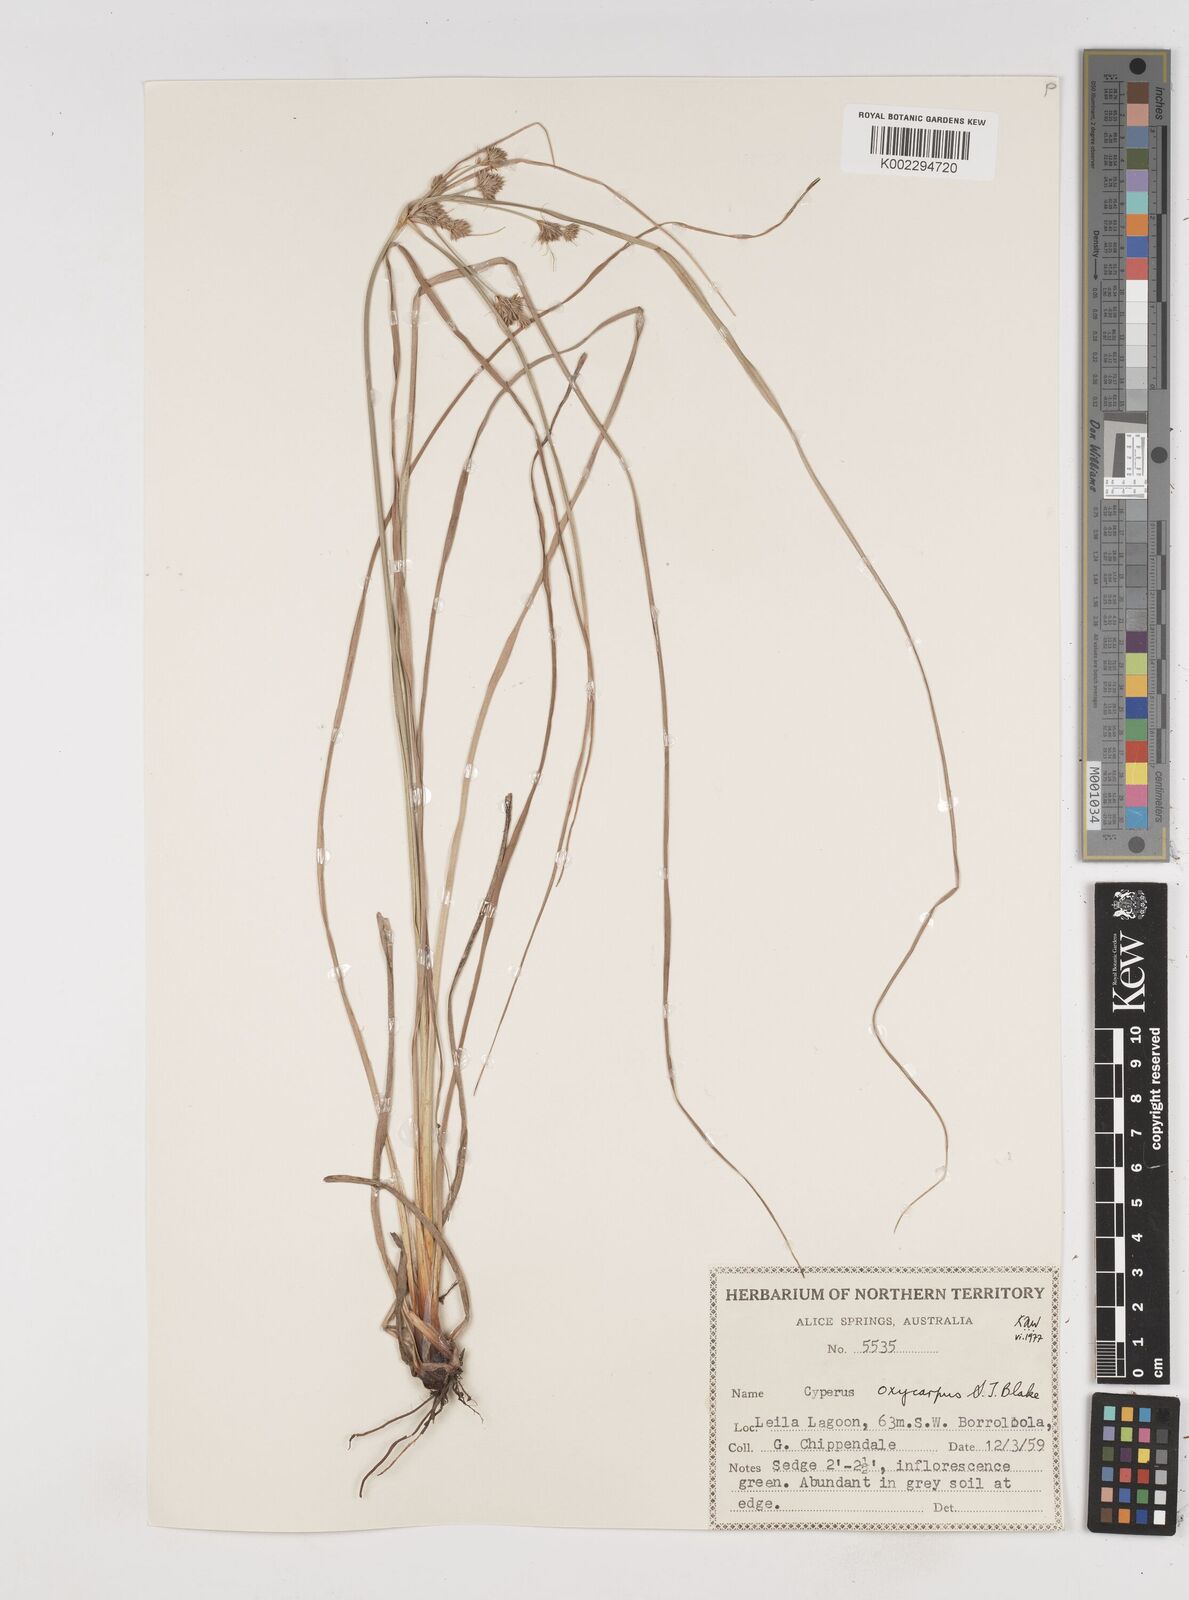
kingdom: Plantae
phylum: Tracheophyta
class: Liliopsida
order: Poales
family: Cyperaceae
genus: Cyperus
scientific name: Cyperus oxycarpus
